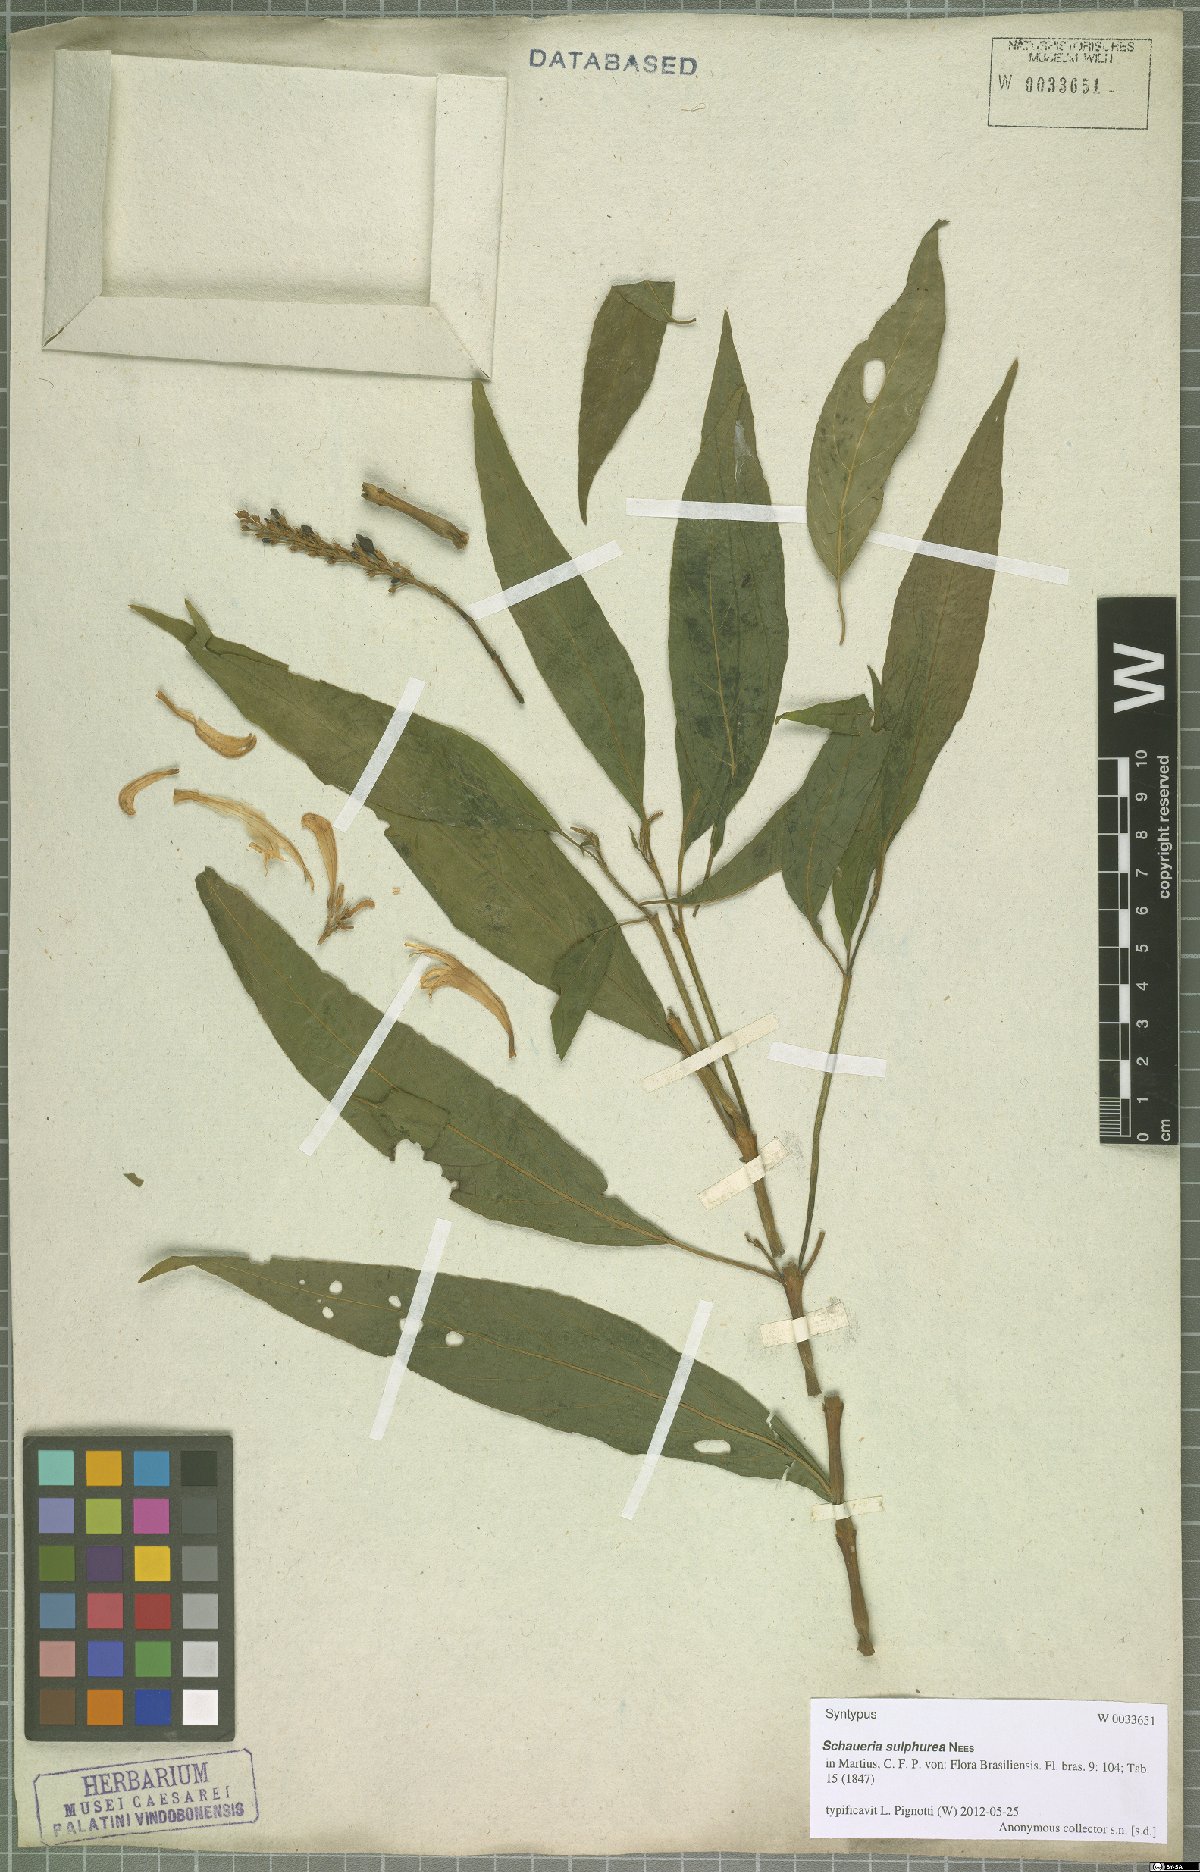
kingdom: Plantae
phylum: Tracheophyta
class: Magnoliopsida
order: Lamiales
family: Acanthaceae
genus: Schaueria
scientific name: Schaueria sulfurea
